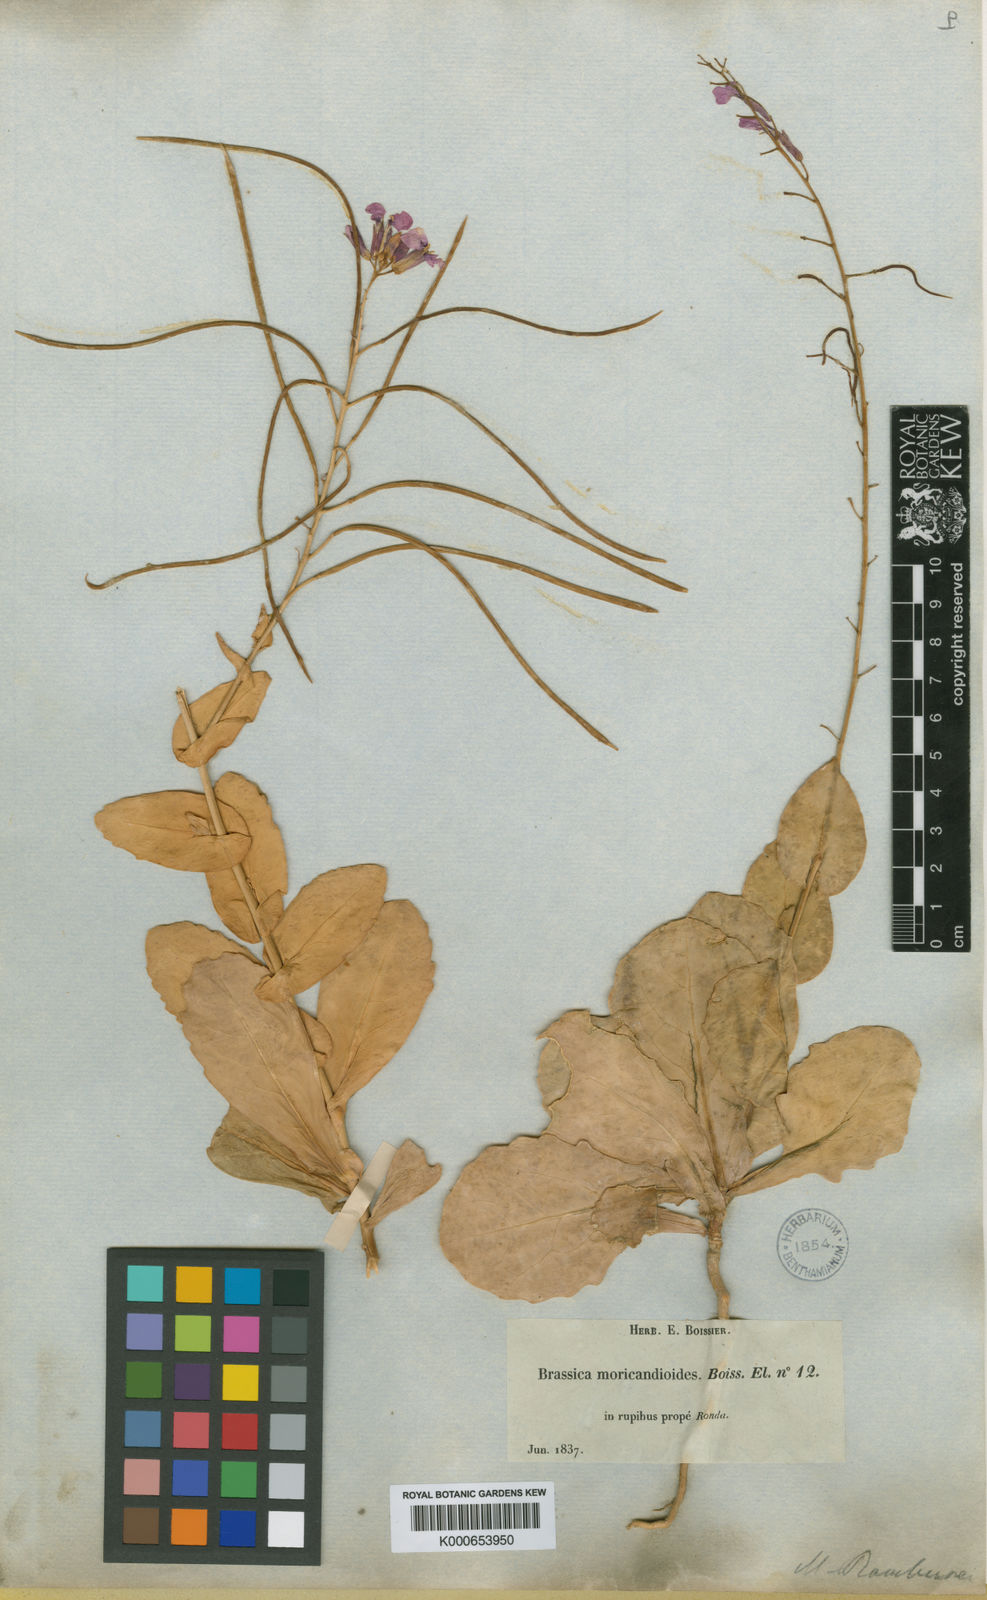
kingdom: Plantae
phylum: Tracheophyta
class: Magnoliopsida
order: Brassicales
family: Brassicaceae
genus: Moricandia
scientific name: Moricandia moricandioides
